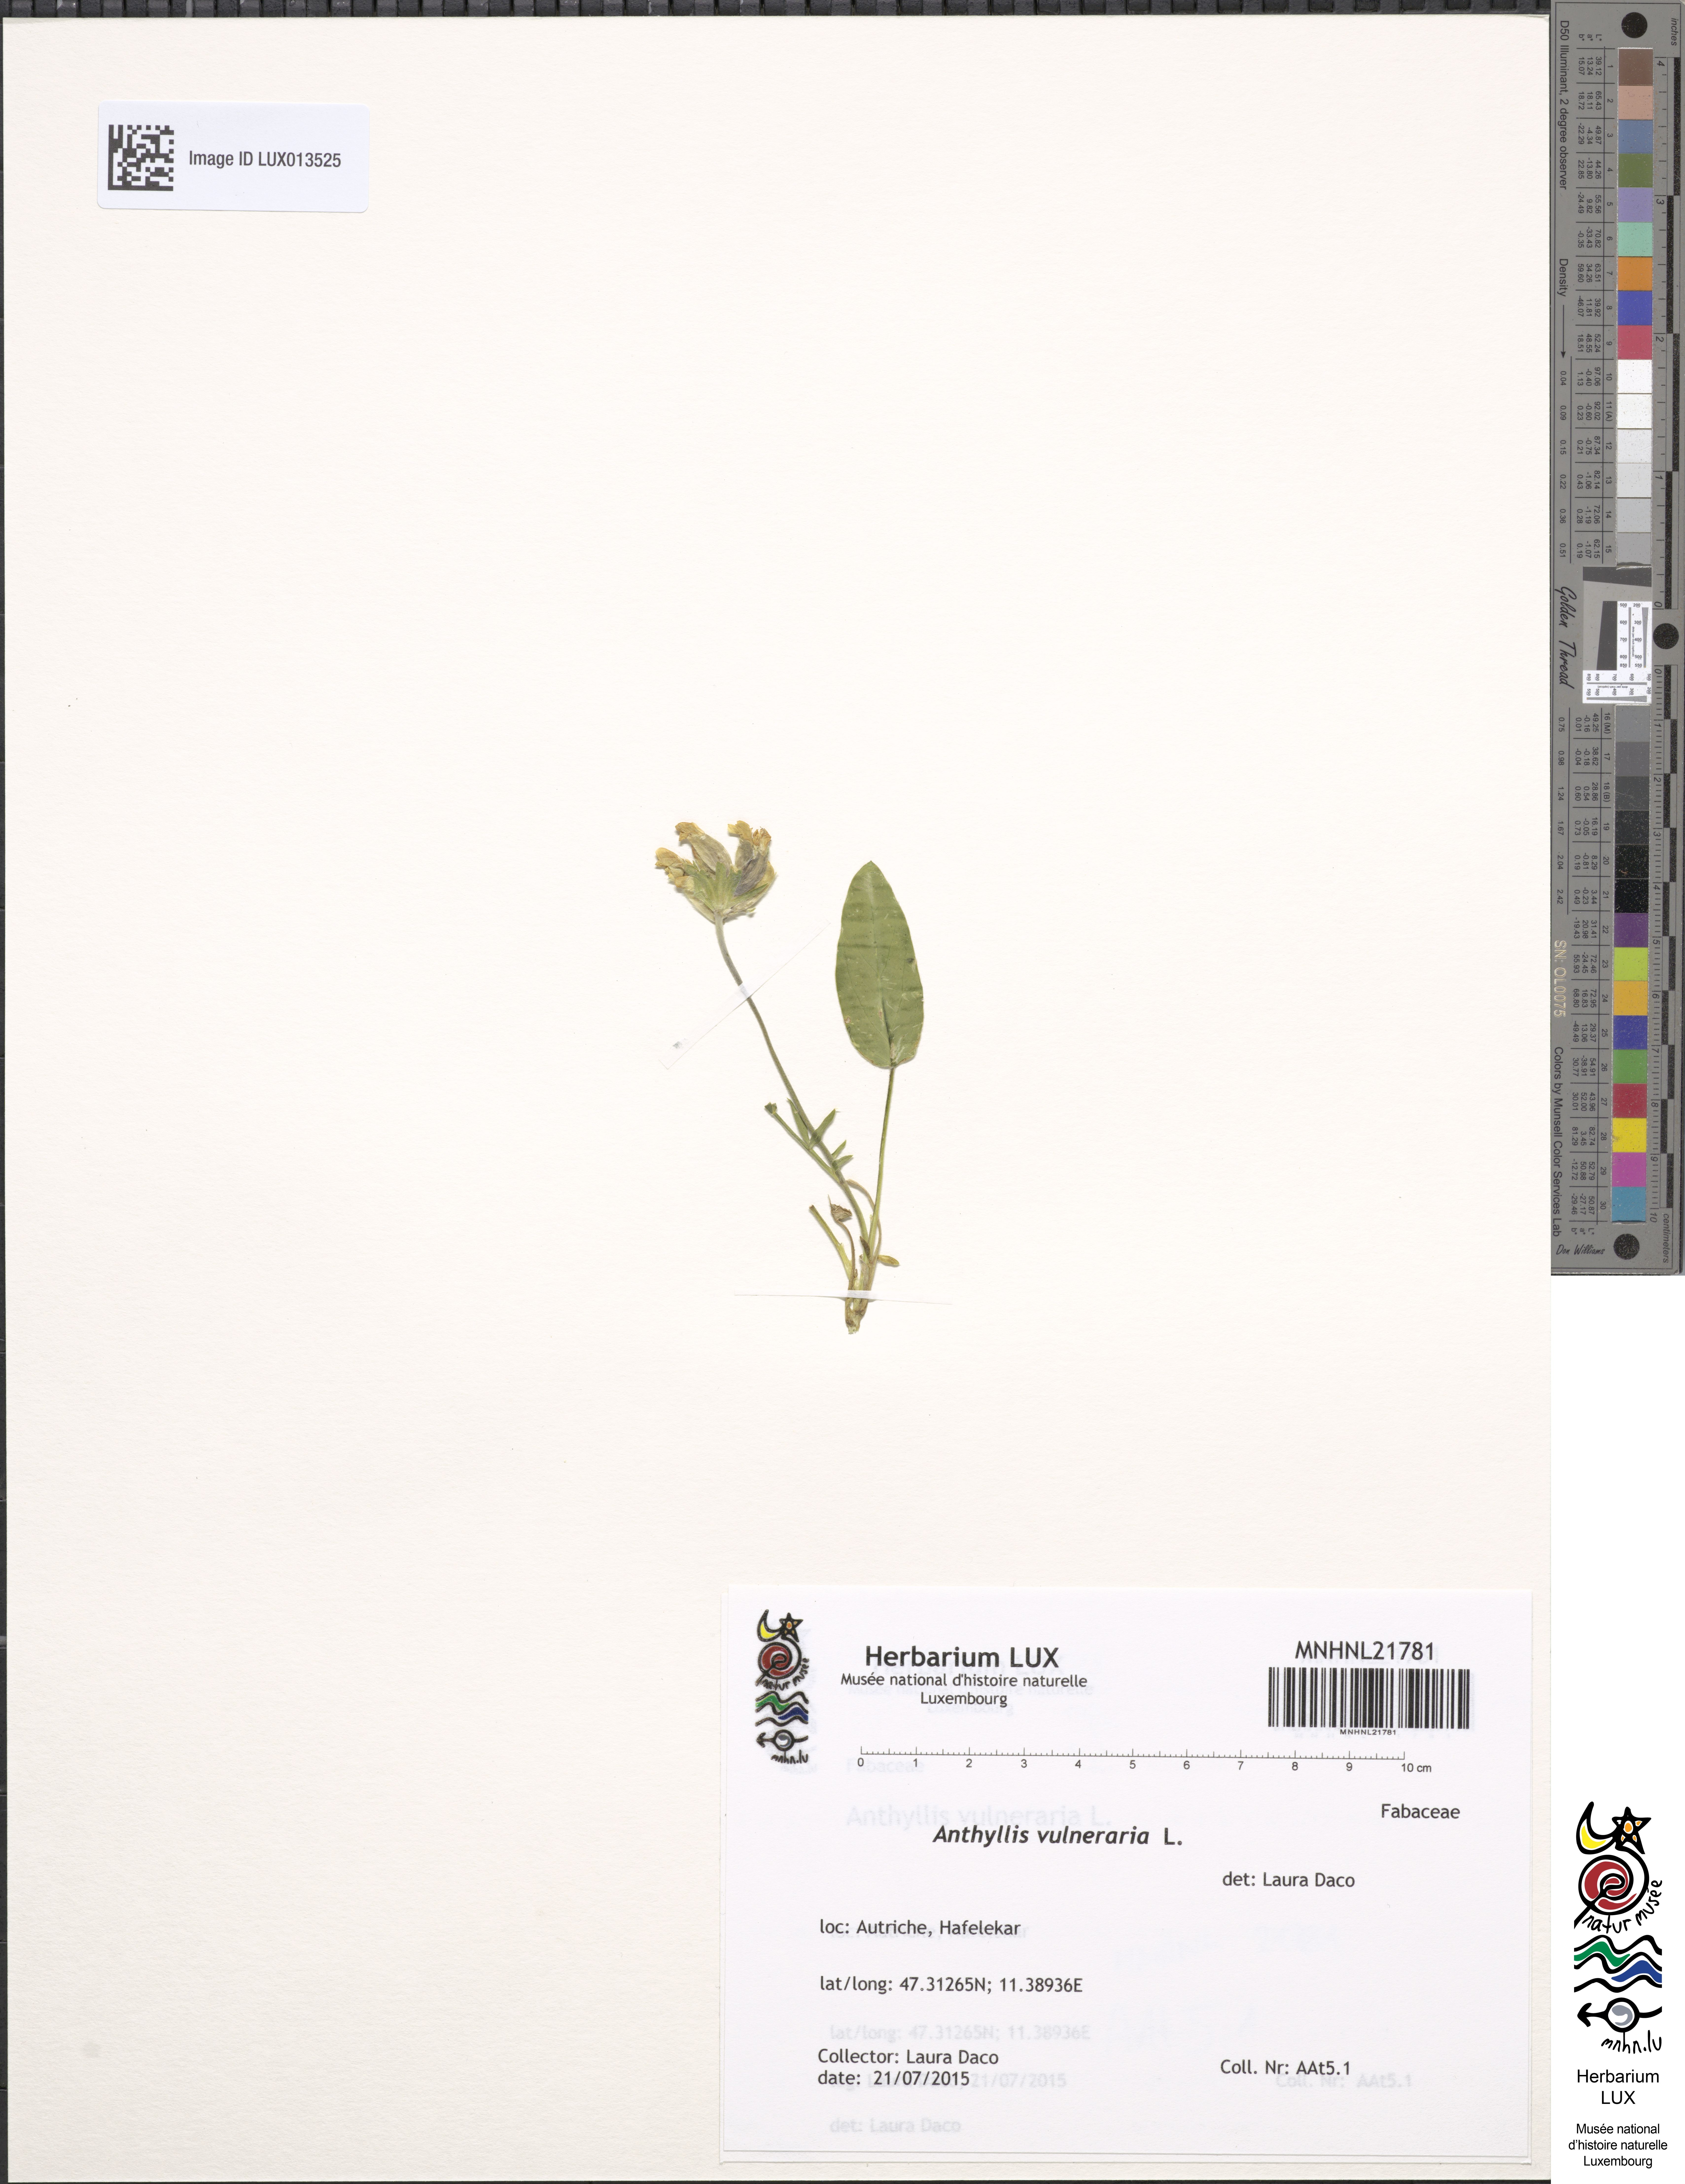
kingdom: Plantae
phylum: Tracheophyta
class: Magnoliopsida
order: Fabales
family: Fabaceae
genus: Anthyllis
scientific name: Anthyllis vulneraria
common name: Kidney vetch
